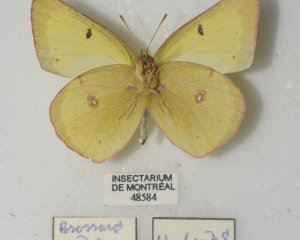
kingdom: Animalia
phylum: Arthropoda
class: Insecta
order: Lepidoptera
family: Pieridae
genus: Colias
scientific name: Colias philodice
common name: Clouded Sulphur
